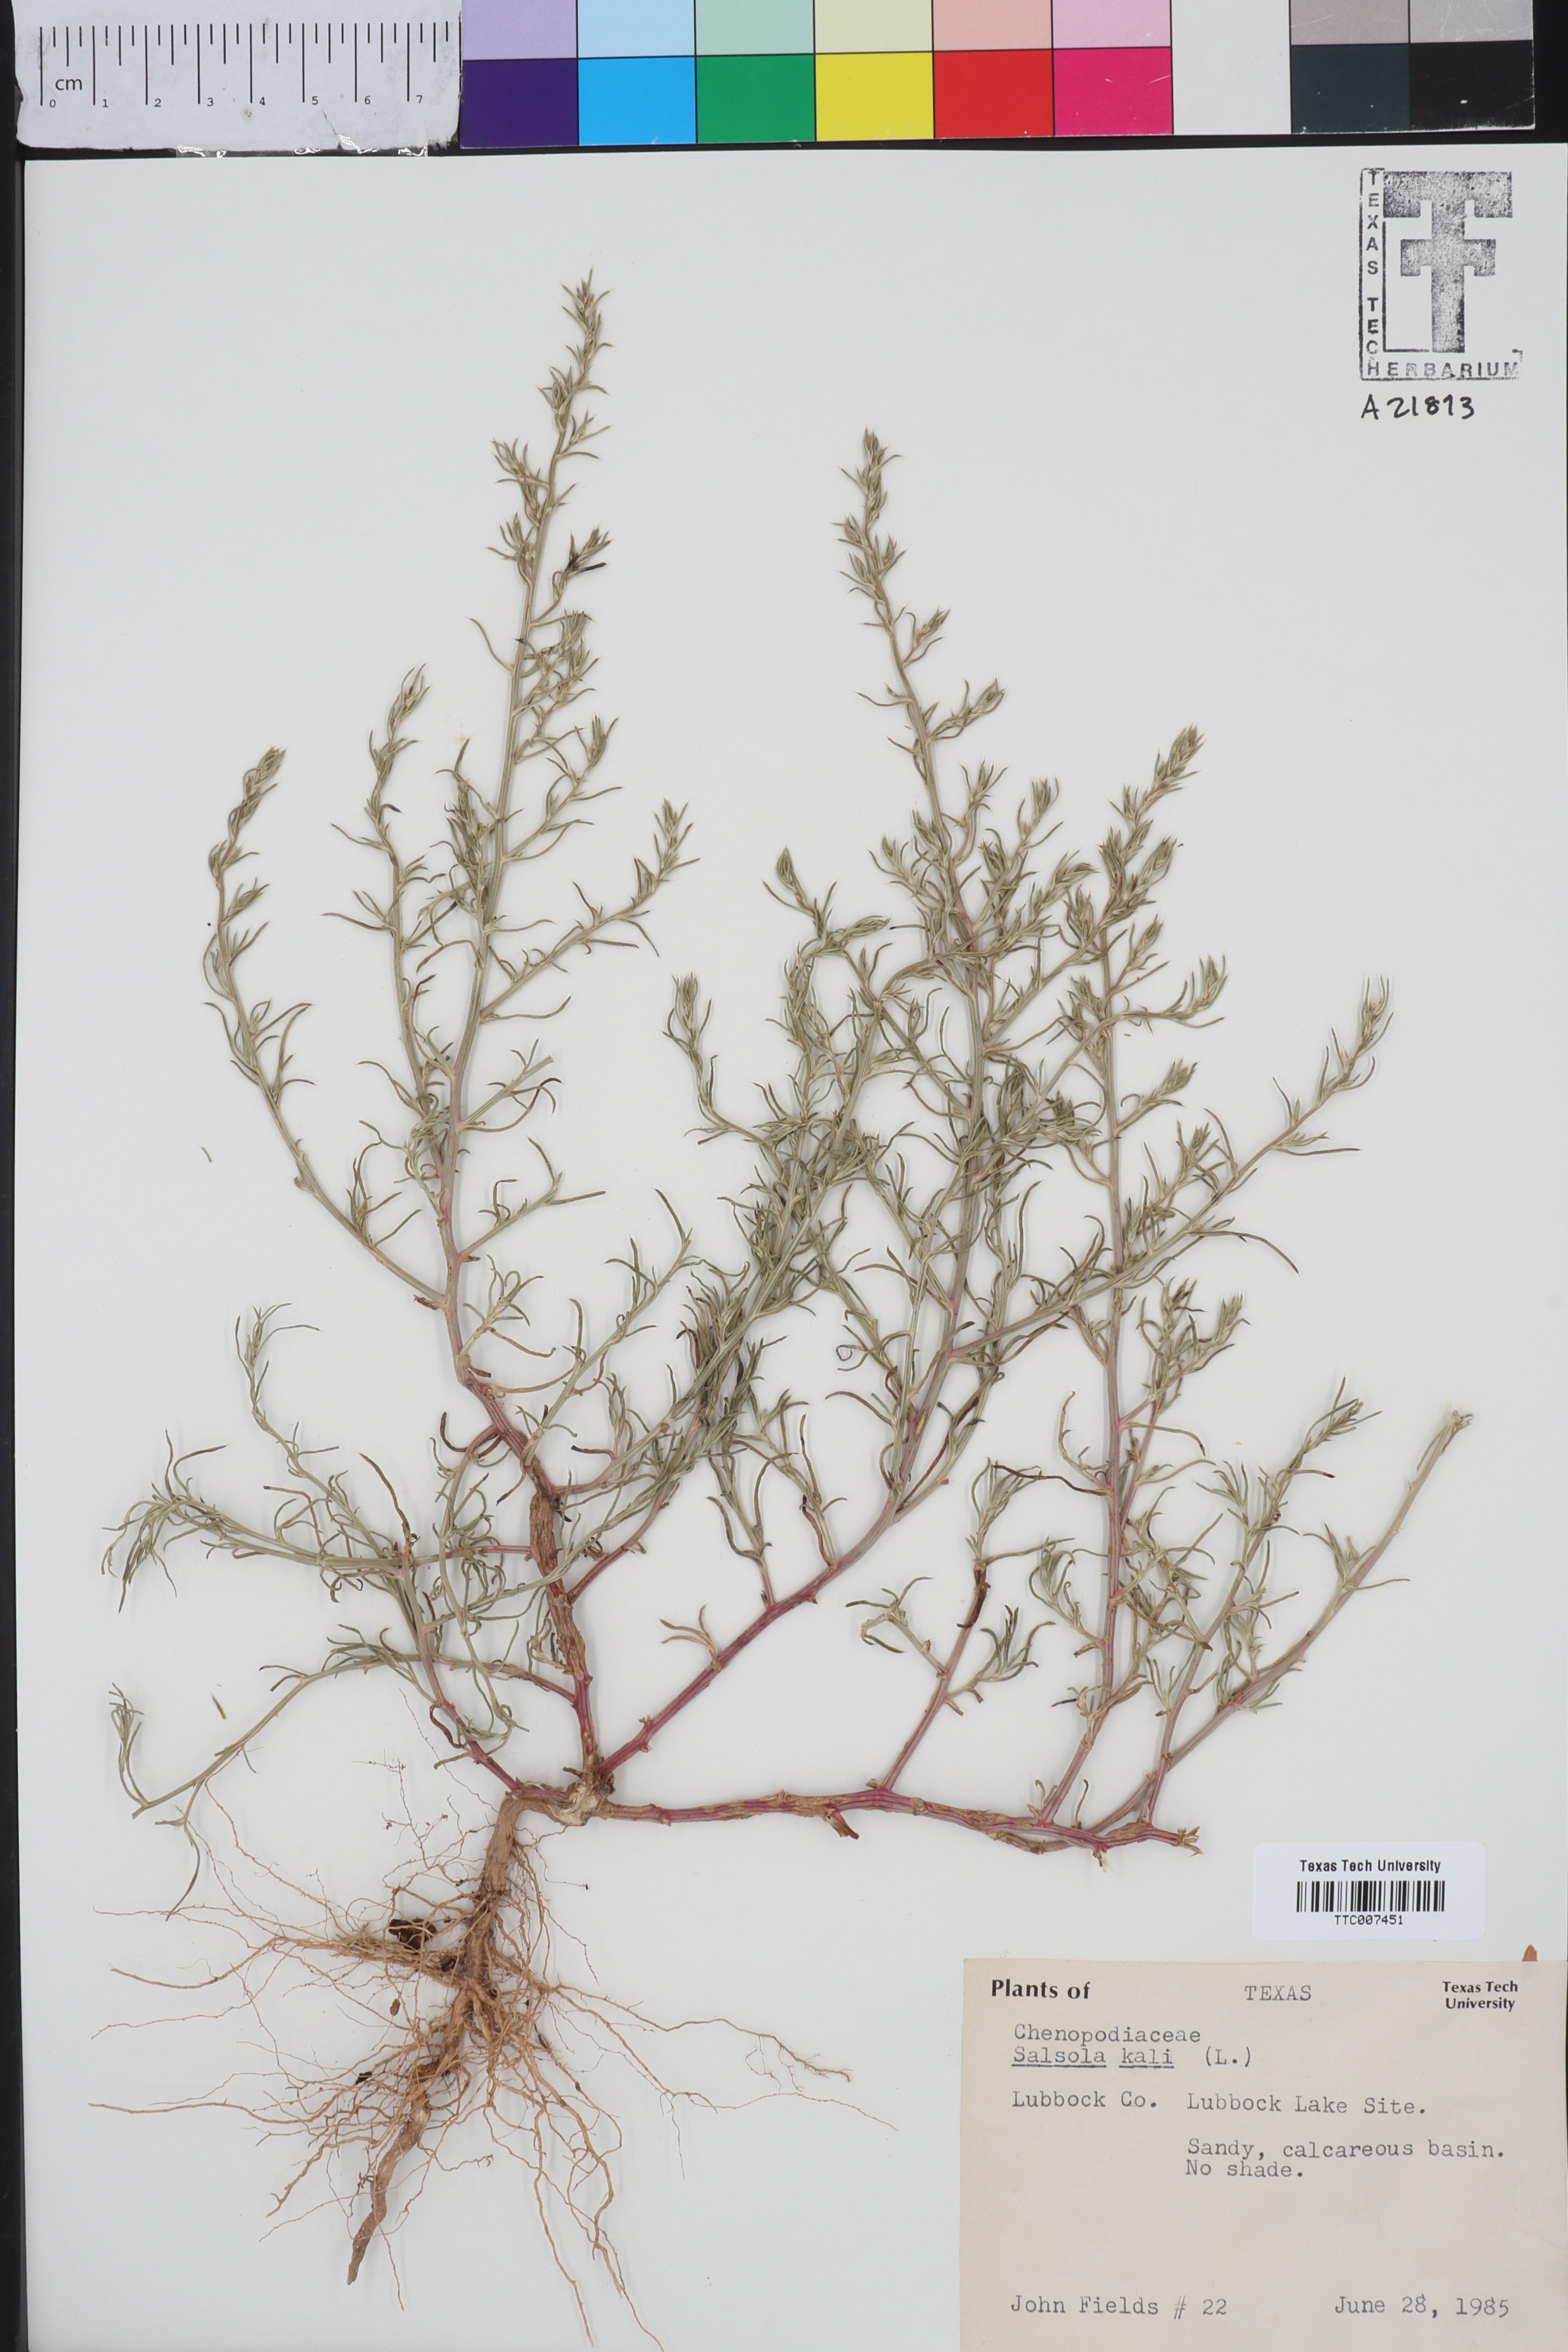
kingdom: Plantae
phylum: Tracheophyta
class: Magnoliopsida
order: Caryophyllales
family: Amaranthaceae
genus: Salsola
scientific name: Salsola kali
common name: Saltwort
